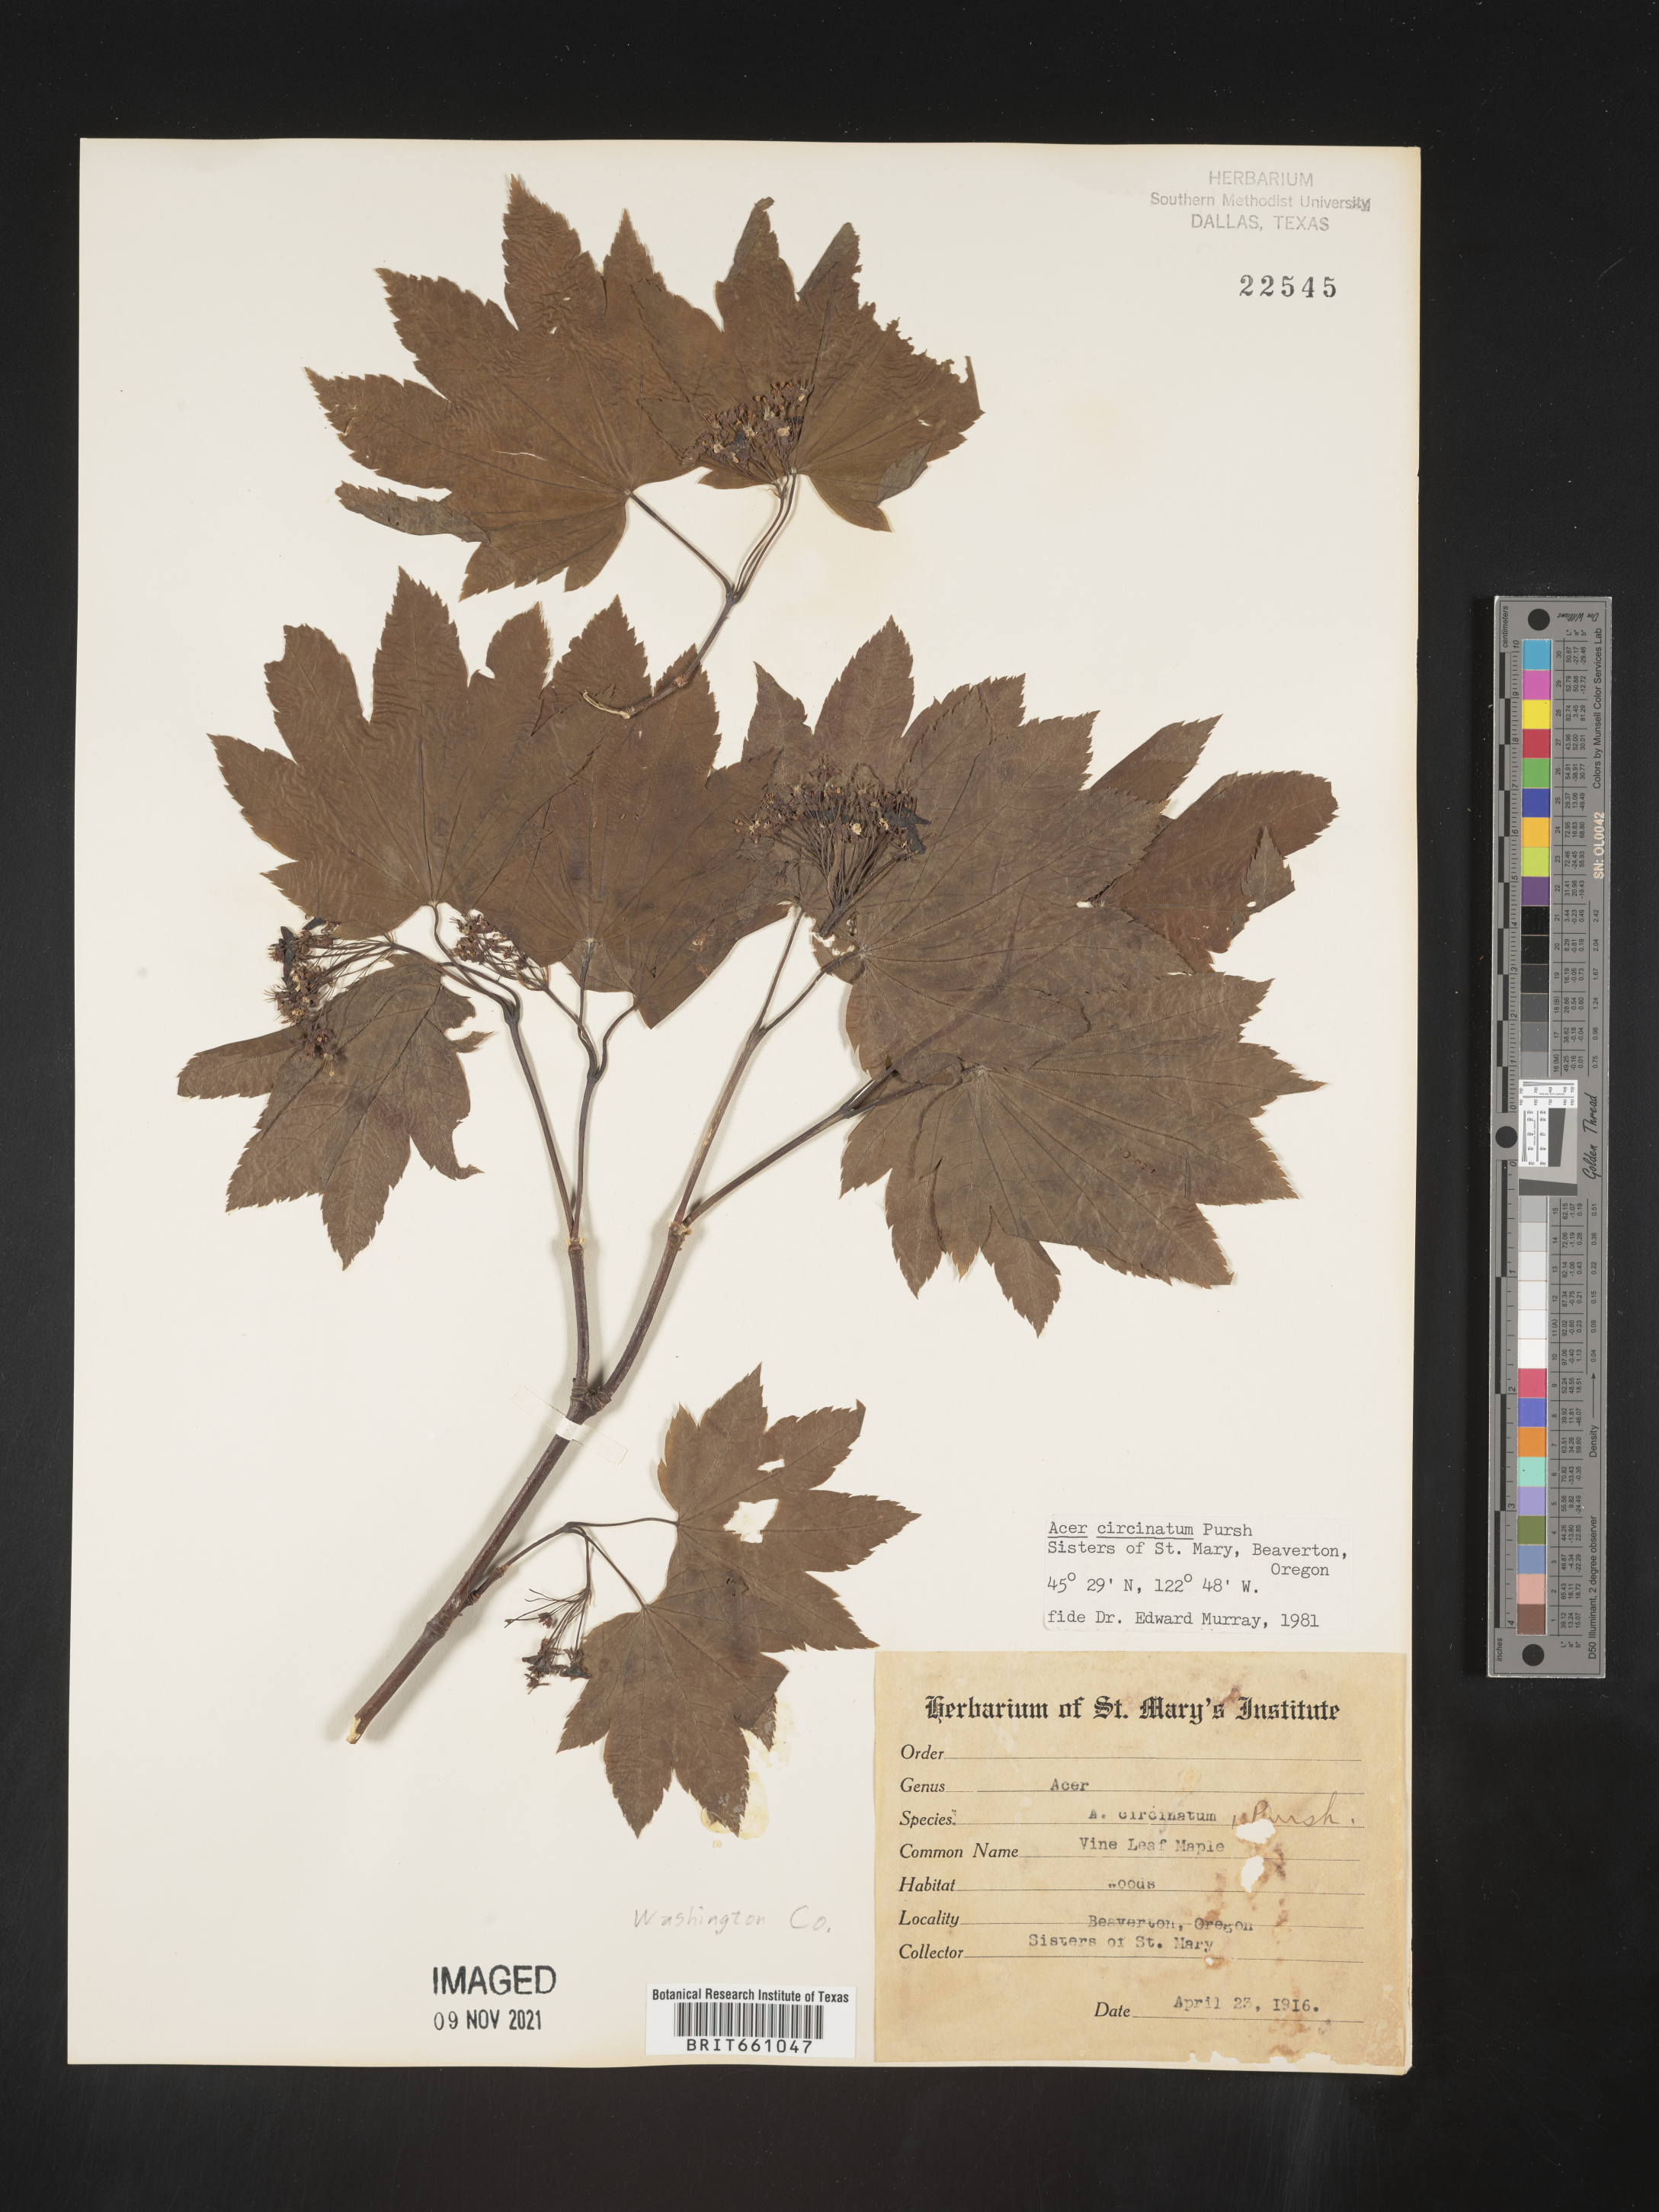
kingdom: Plantae
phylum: Tracheophyta
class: Magnoliopsida
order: Sapindales
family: Sapindaceae
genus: Acer
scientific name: Acer circinatum
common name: Vine maple
